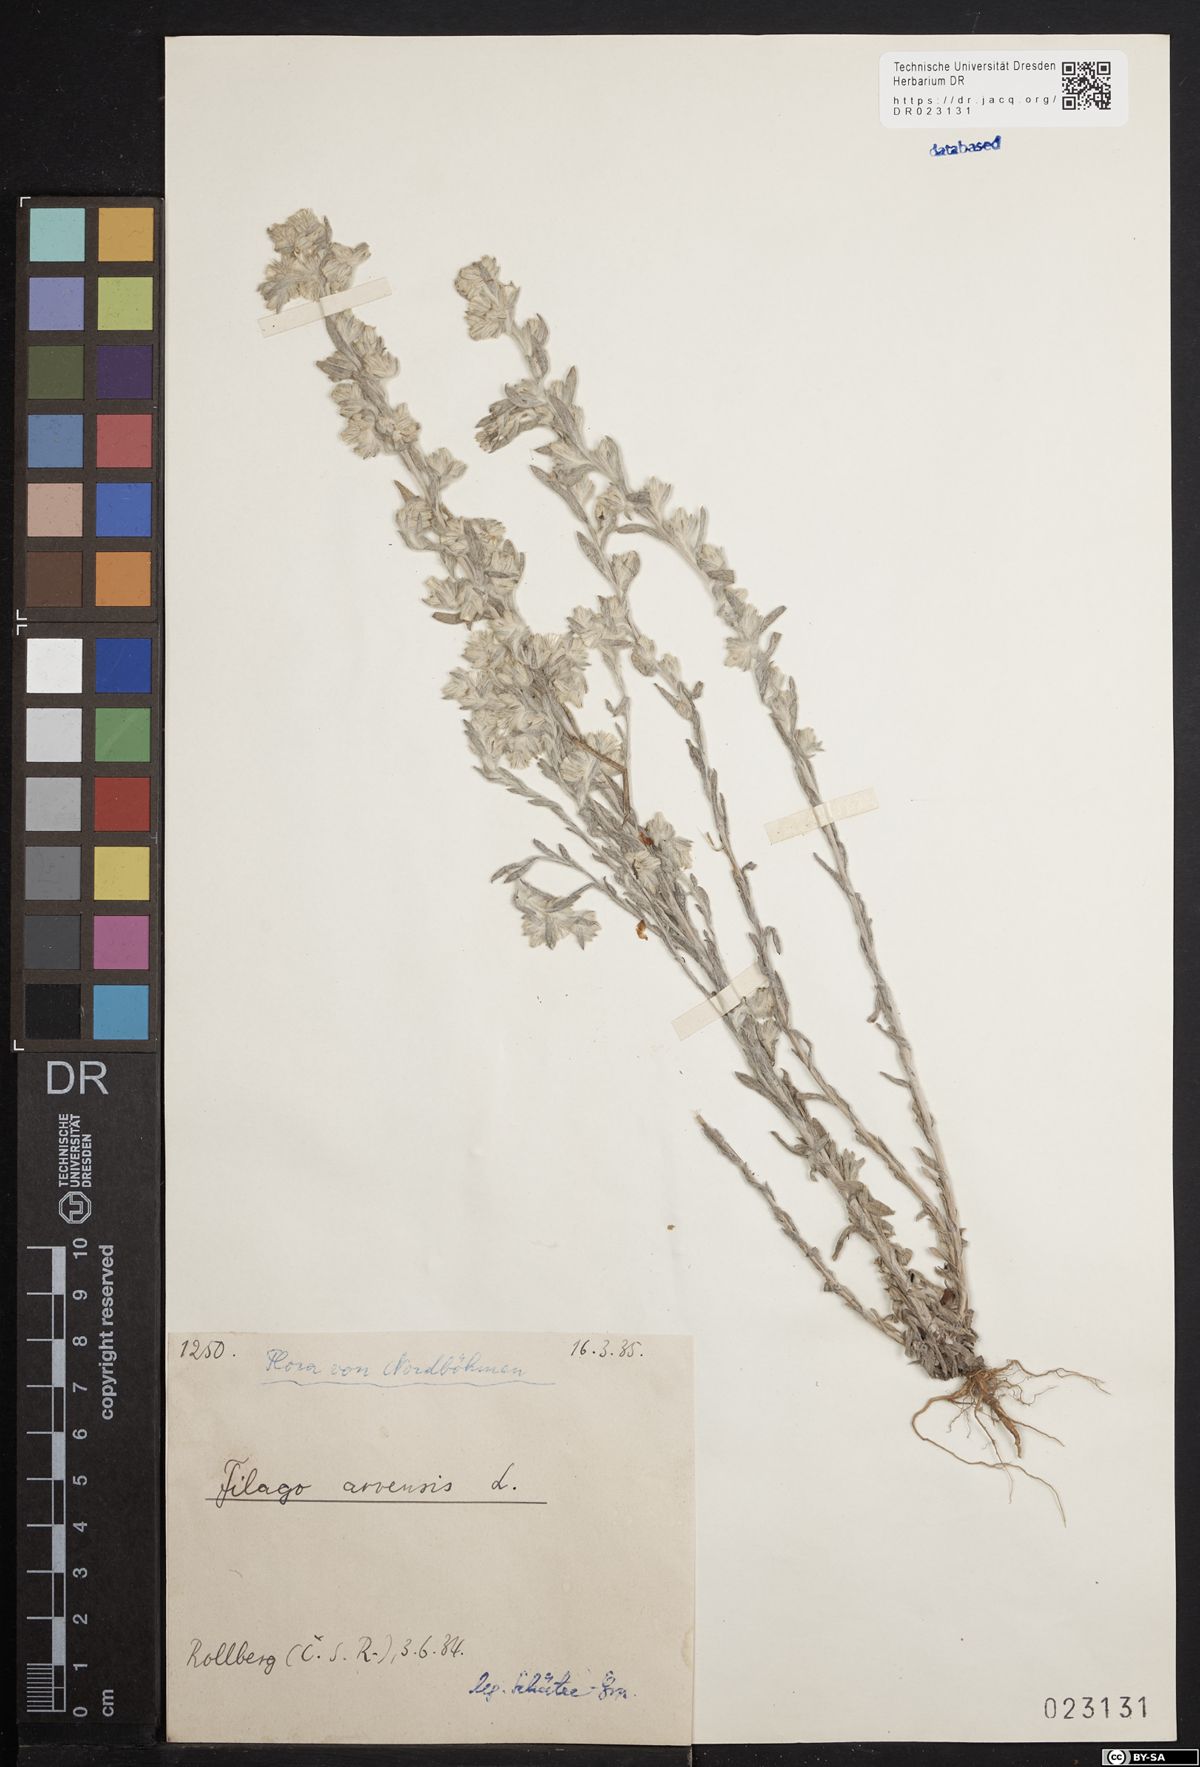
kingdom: Plantae
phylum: Tracheophyta
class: Magnoliopsida
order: Asterales
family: Asteraceae
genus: Filago
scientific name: Filago arvensis
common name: Field cudweed
